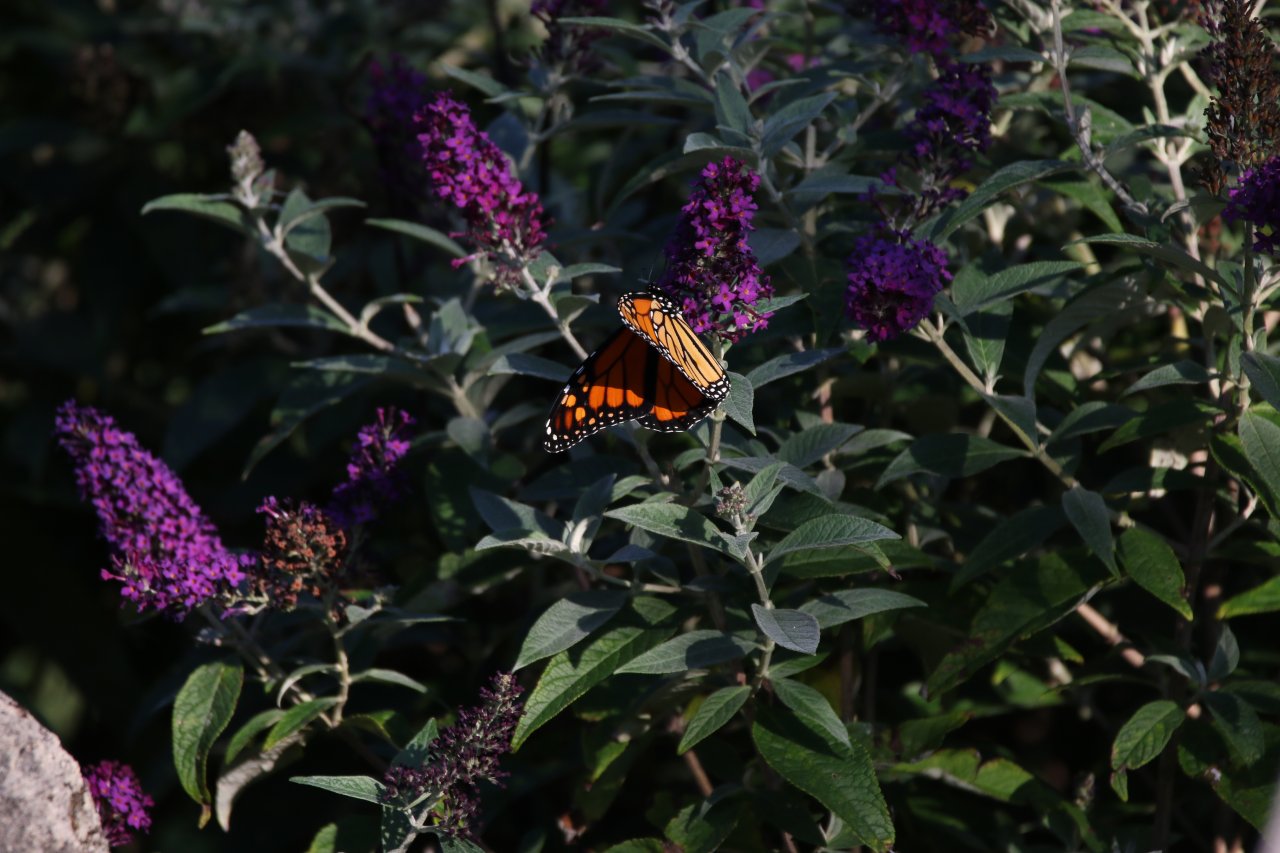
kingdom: Animalia
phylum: Arthropoda
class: Insecta
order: Lepidoptera
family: Nymphalidae
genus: Danaus
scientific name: Danaus plexippus
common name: Monarch
